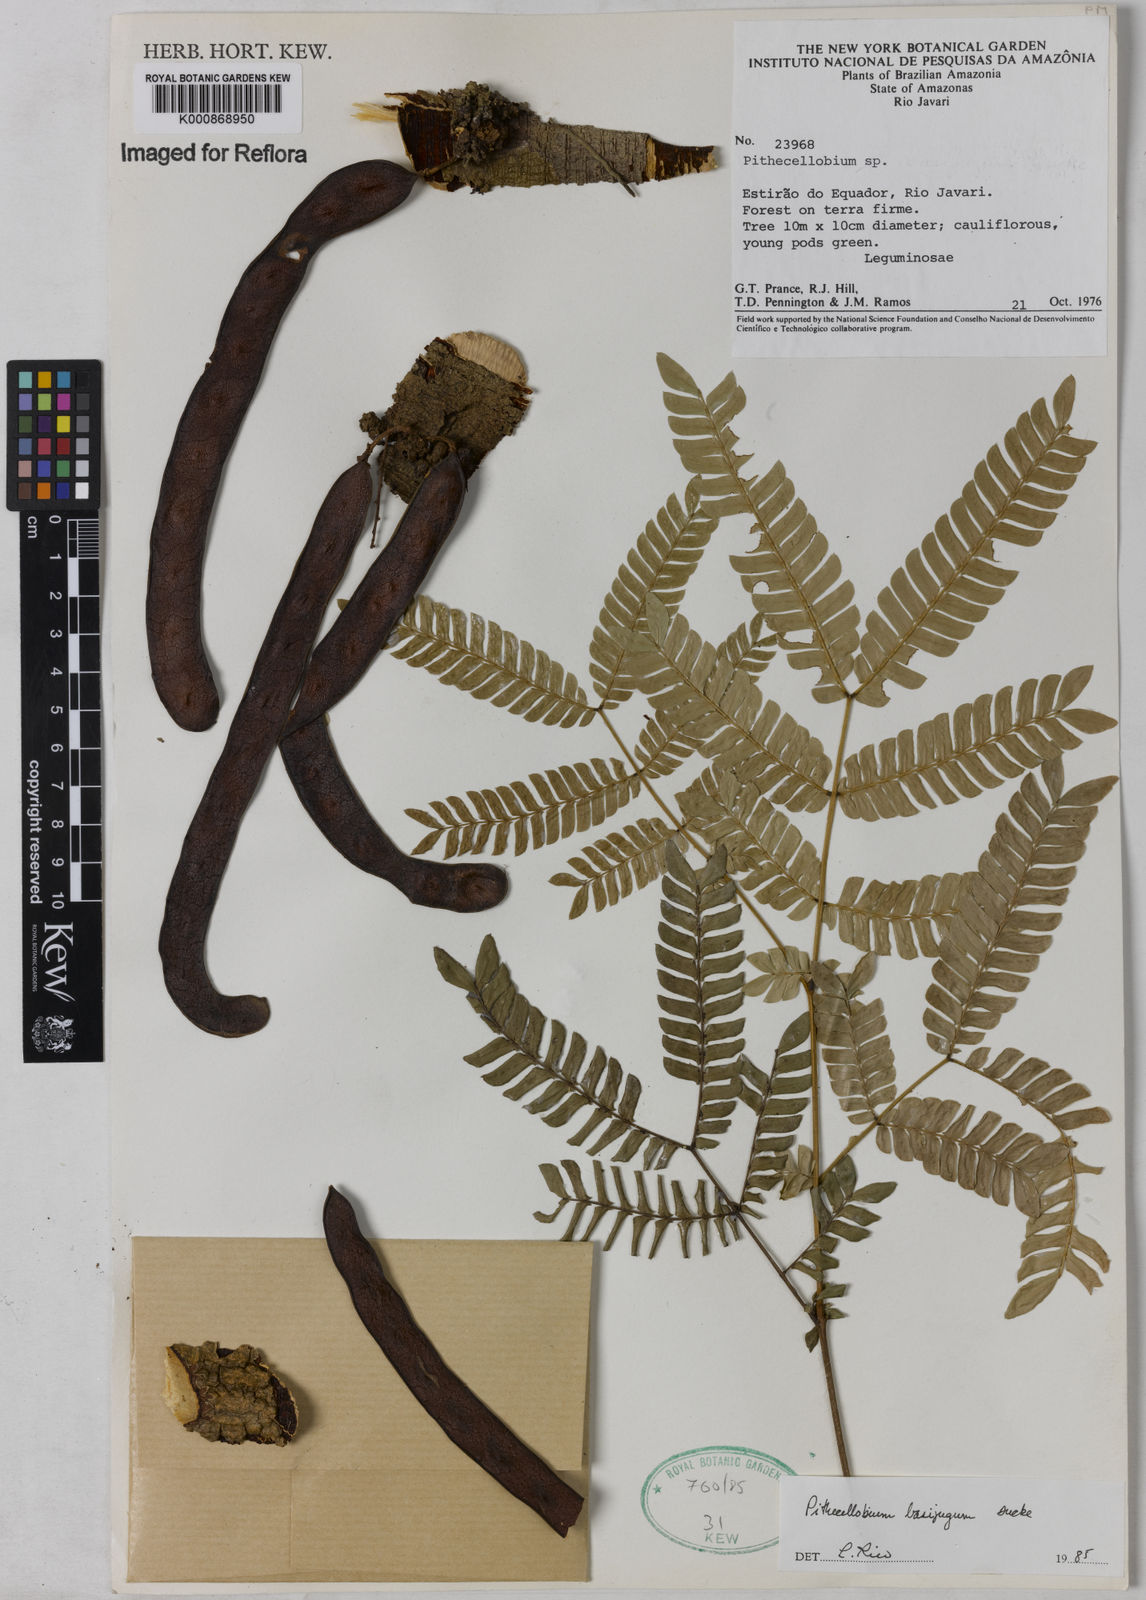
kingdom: Plantae
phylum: Tracheophyta
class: Magnoliopsida
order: Fabales
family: Fabaceae
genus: Zygia
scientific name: Zygia basijuga
